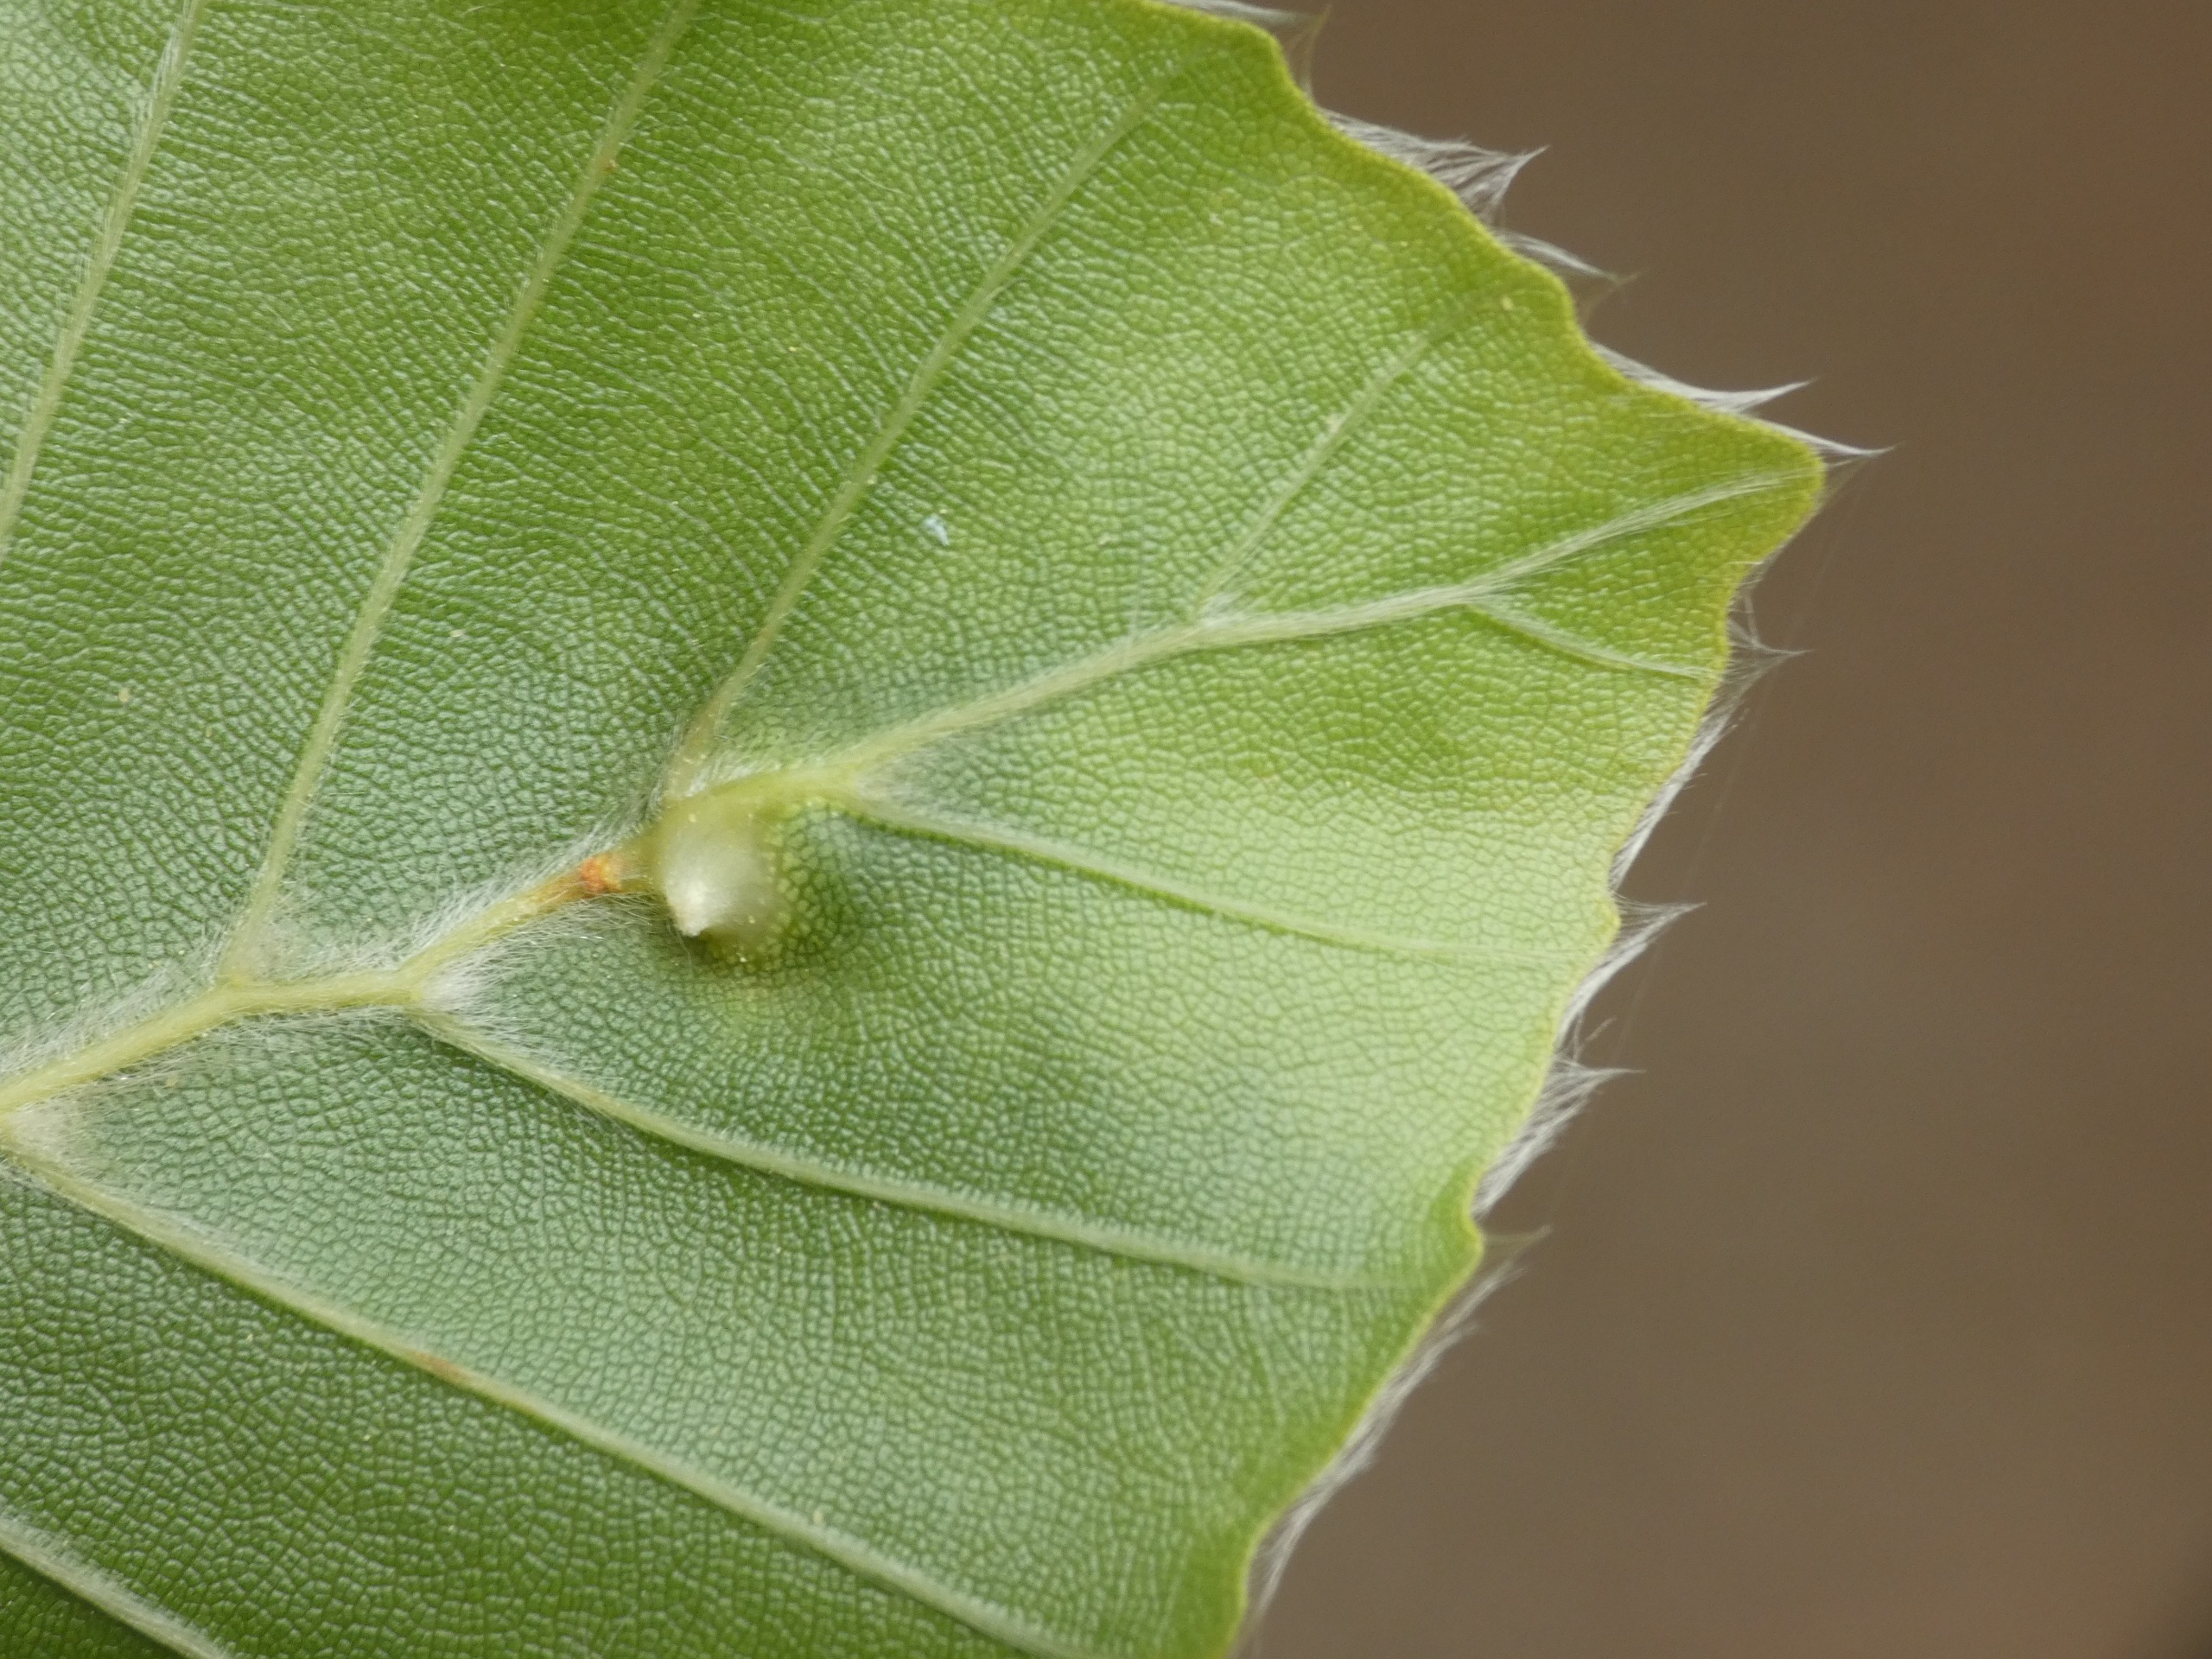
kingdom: Animalia
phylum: Arthropoda
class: Insecta
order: Diptera
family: Cecidomyiidae
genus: Mikiola
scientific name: Mikiola fagi
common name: Bøgegalmyg
